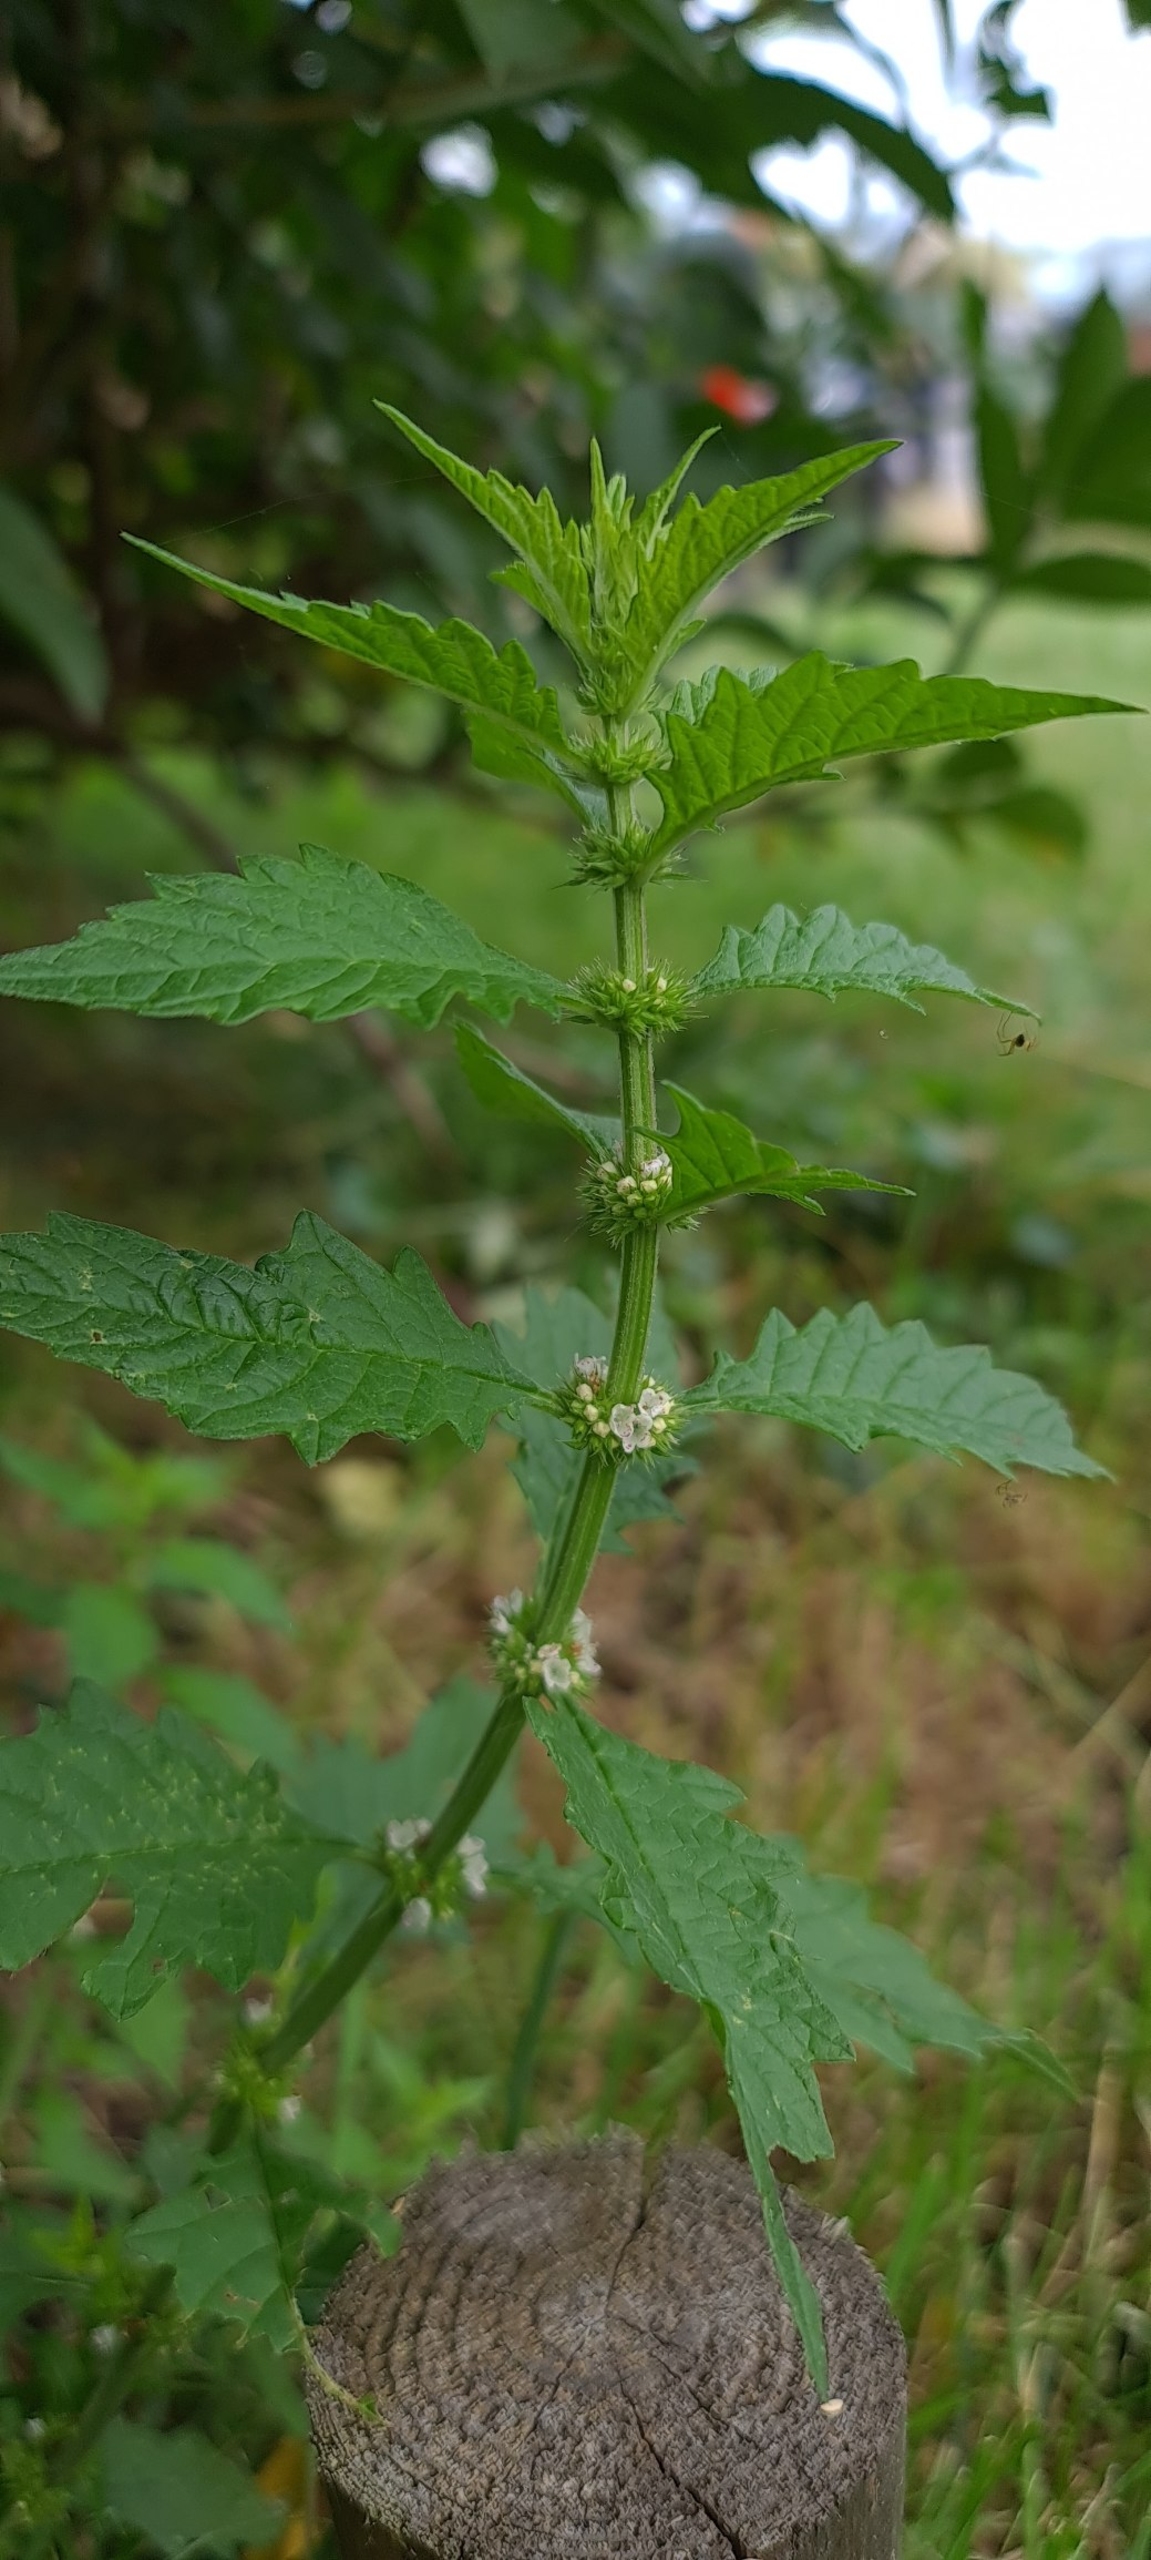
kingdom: Plantae
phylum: Tracheophyta
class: Magnoliopsida
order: Lamiales
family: Lamiaceae
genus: Lycopus
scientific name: Lycopus europaeus
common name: Sværtevæld
